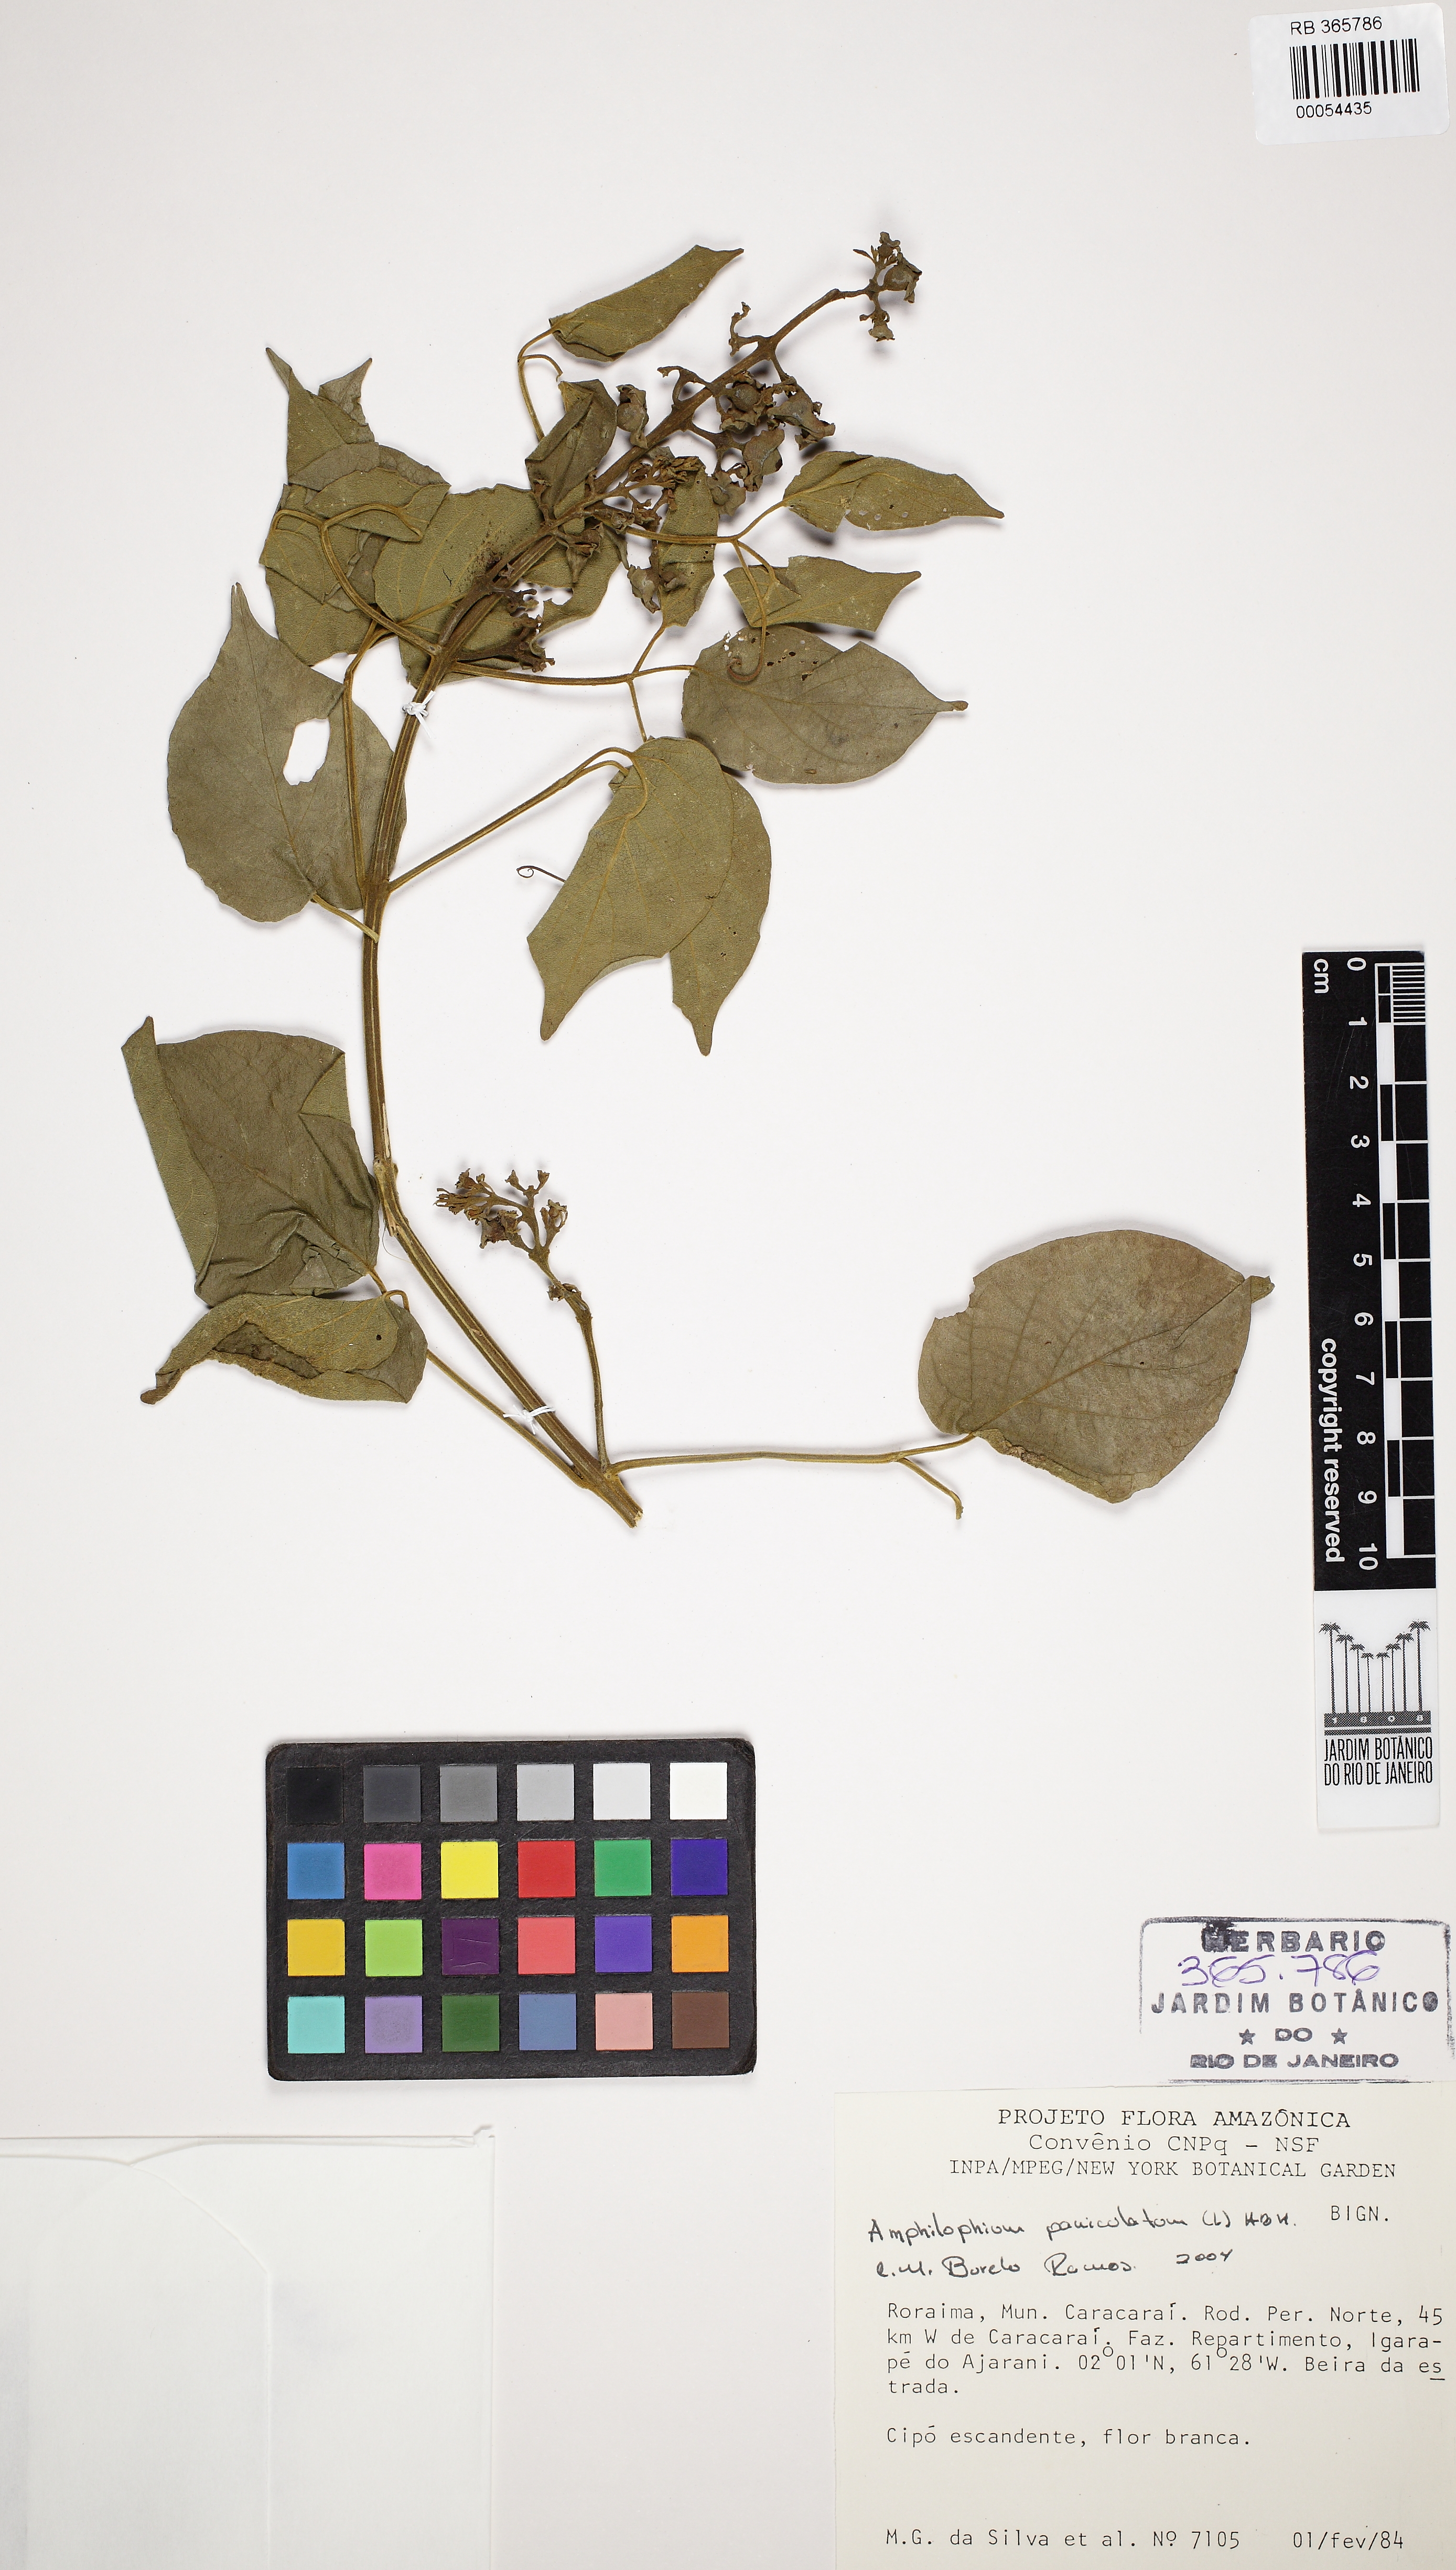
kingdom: Plantae
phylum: Tracheophyta
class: Magnoliopsida
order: Lamiales
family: Bignoniaceae
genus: Amphilophium
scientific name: Amphilophium paniculatum
